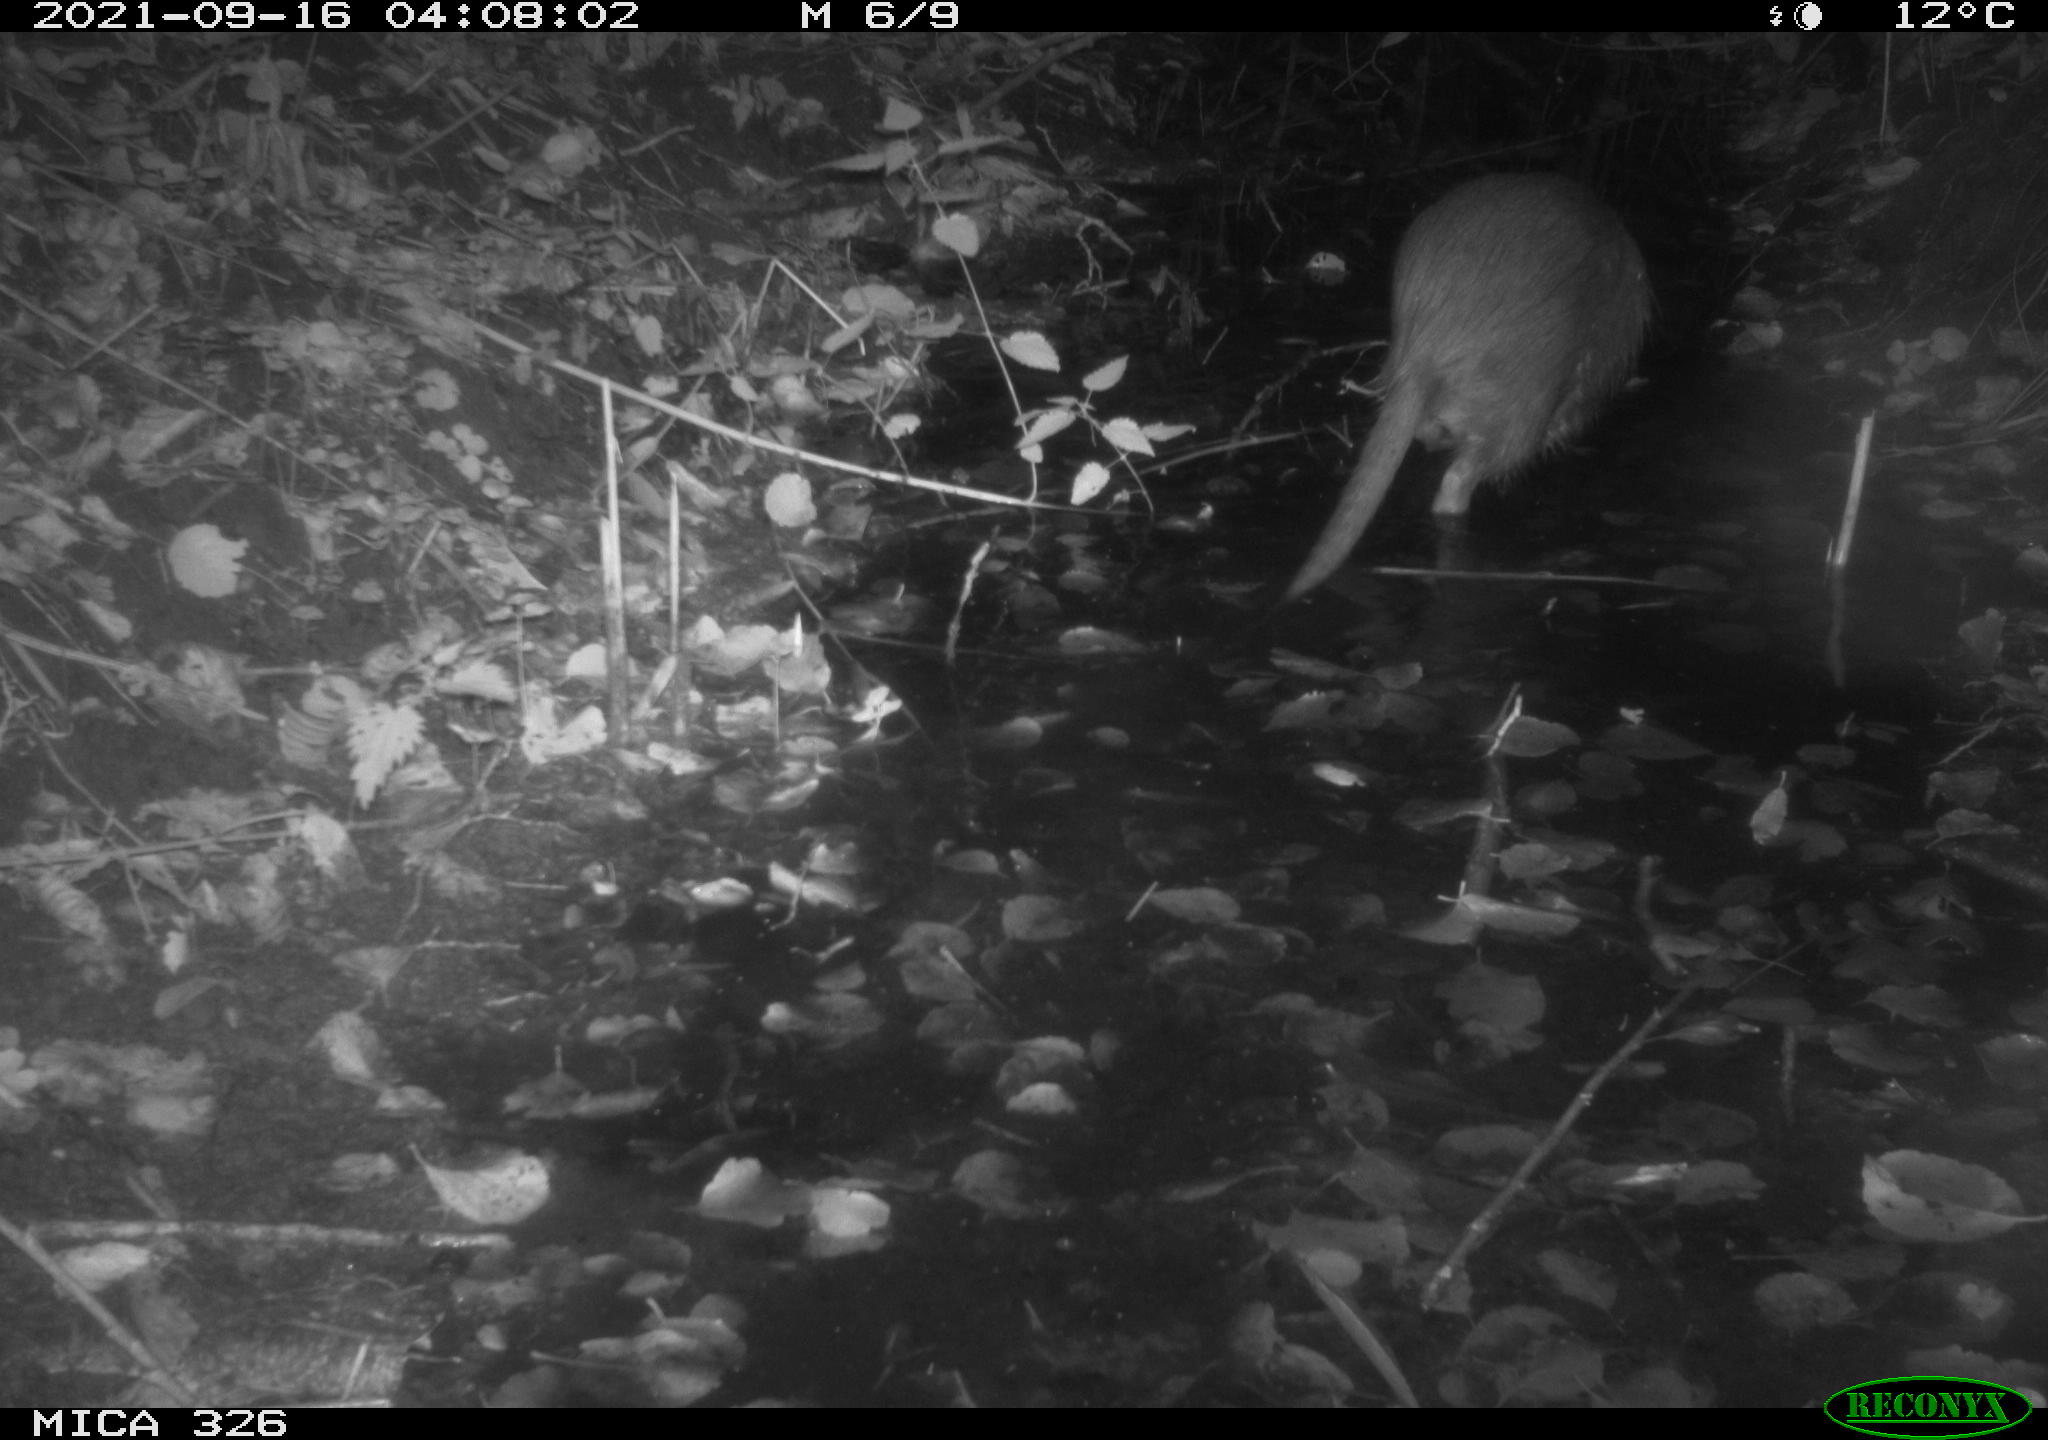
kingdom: Animalia
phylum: Chordata
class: Mammalia
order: Rodentia
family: Myocastoridae
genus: Myocastor
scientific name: Myocastor coypus
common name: Coypu
